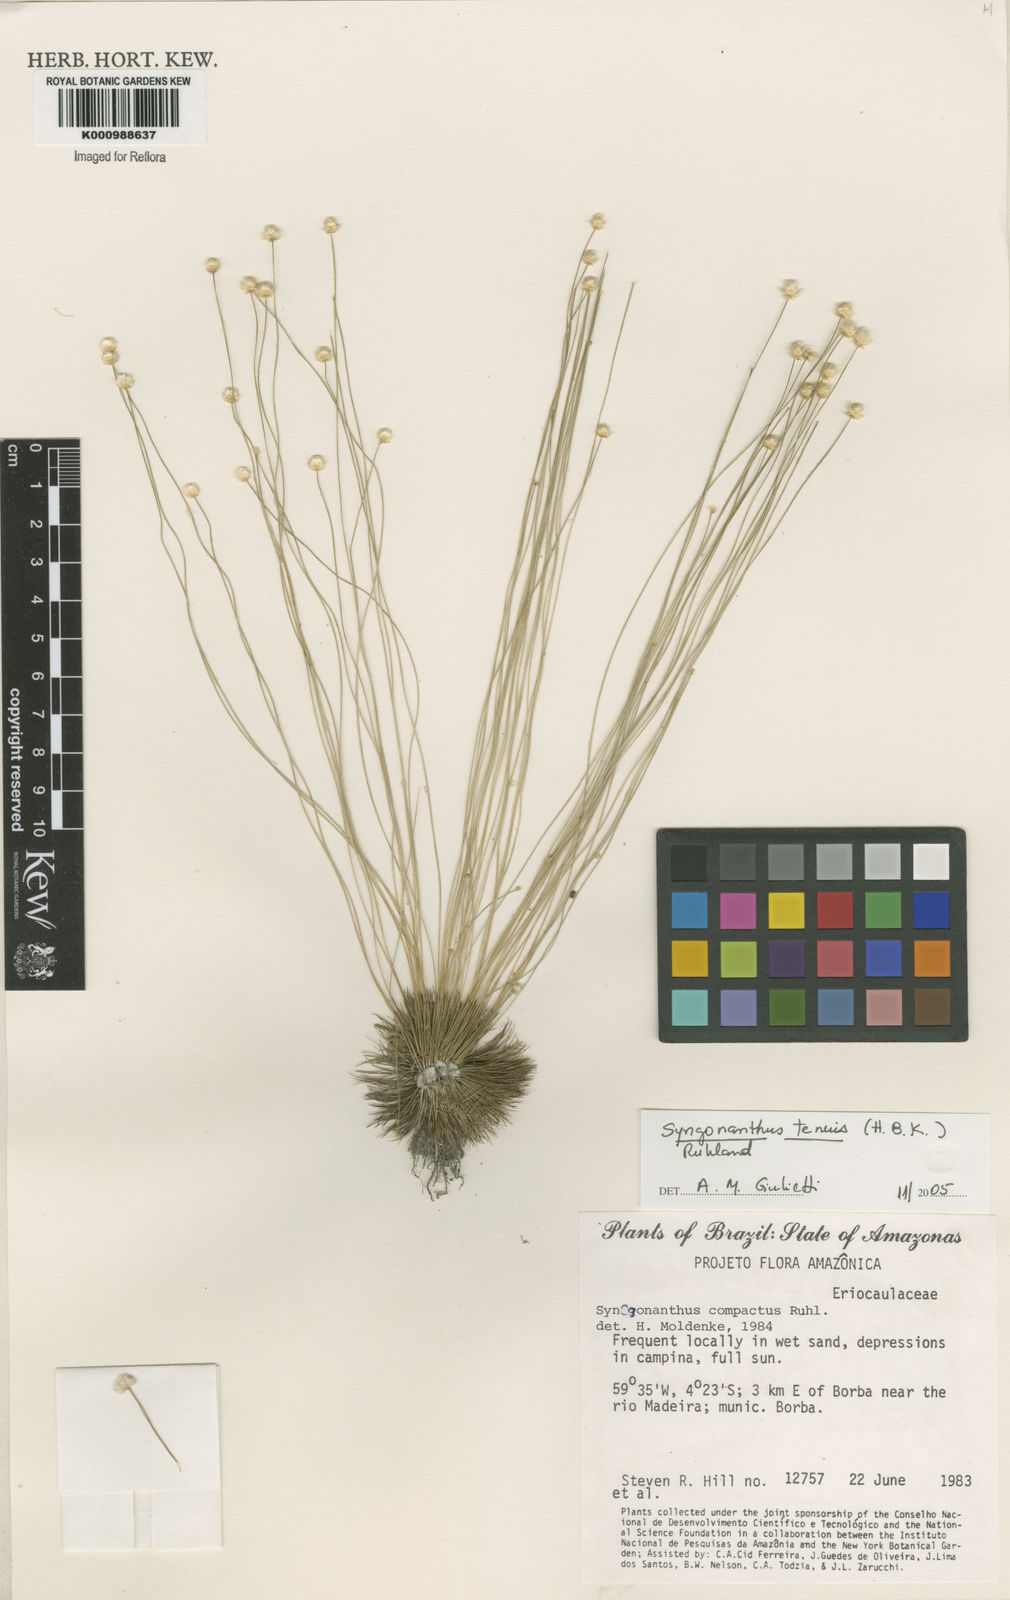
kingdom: Plantae
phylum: Tracheophyta
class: Liliopsida
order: Poales
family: Eriocaulaceae
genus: Syngonanthus
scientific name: Syngonanthus tenuis
